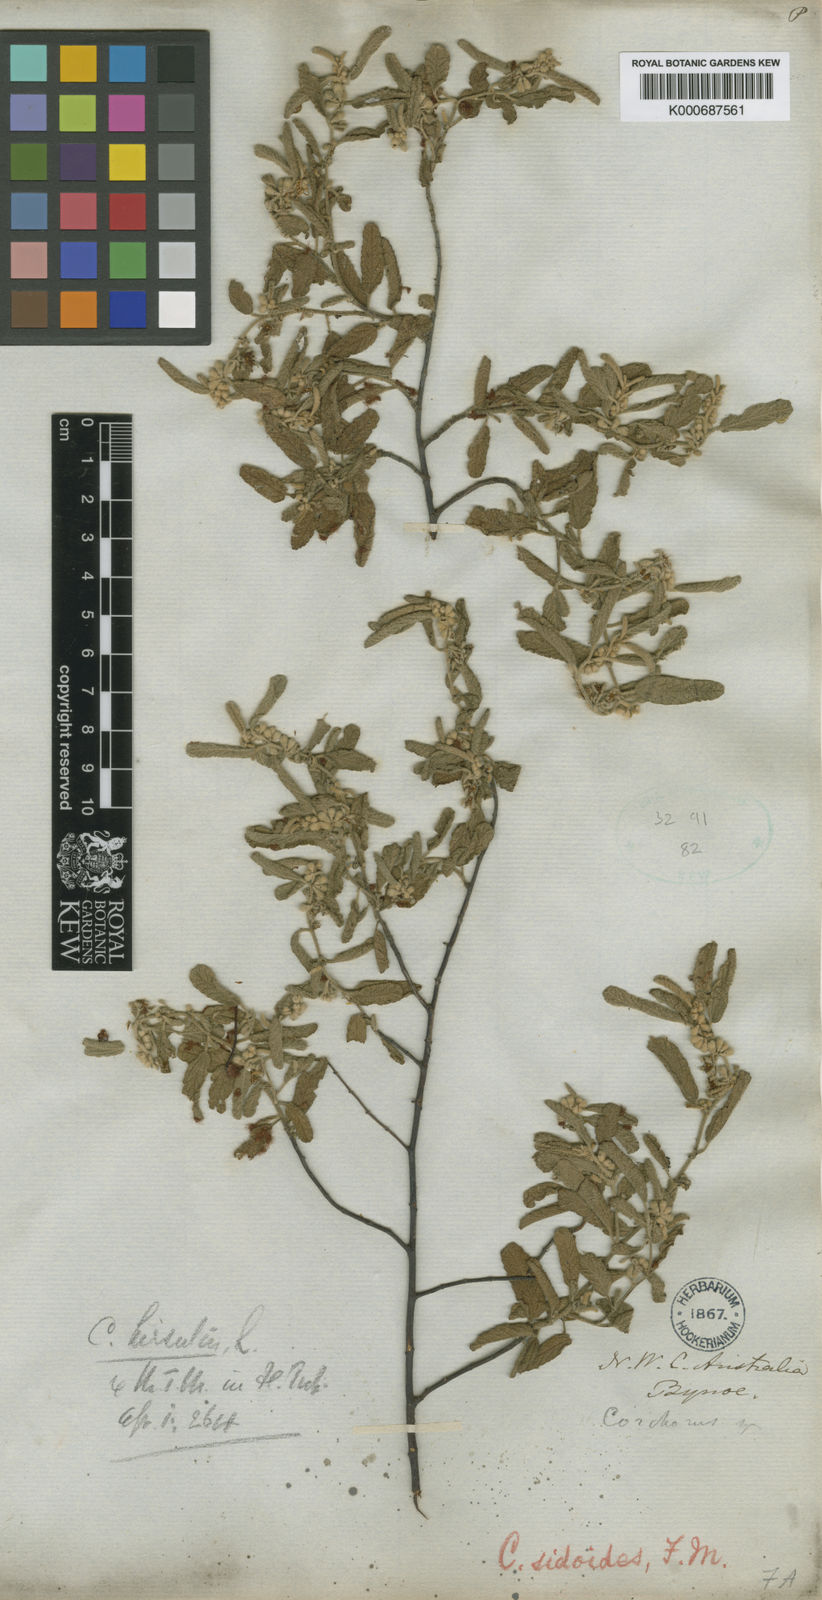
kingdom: Plantae
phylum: Tracheophyta
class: Magnoliopsida
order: Malvales
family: Malvaceae
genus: Corchorus
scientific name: Corchorus sidoides
